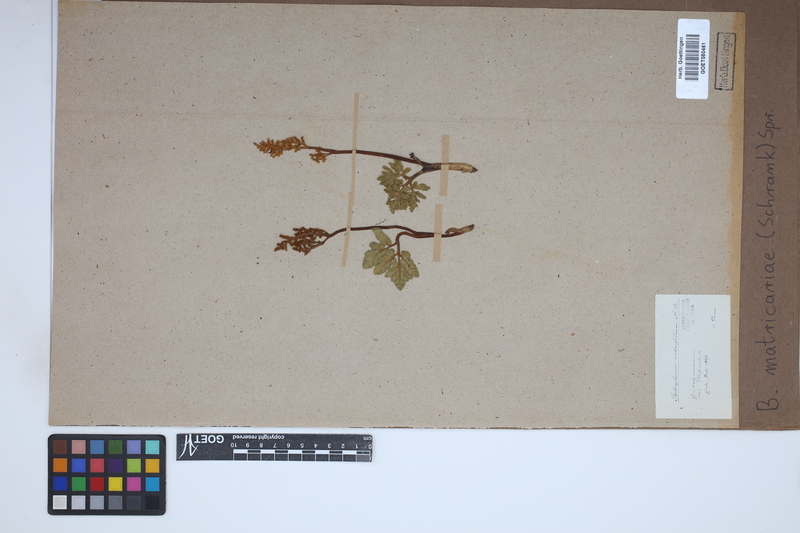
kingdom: Plantae
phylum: Tracheophyta
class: Polypodiopsida
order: Ophioglossales
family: Ophioglossaceae
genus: Sceptridium
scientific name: Sceptridium multifidum
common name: Leathery grape fern
